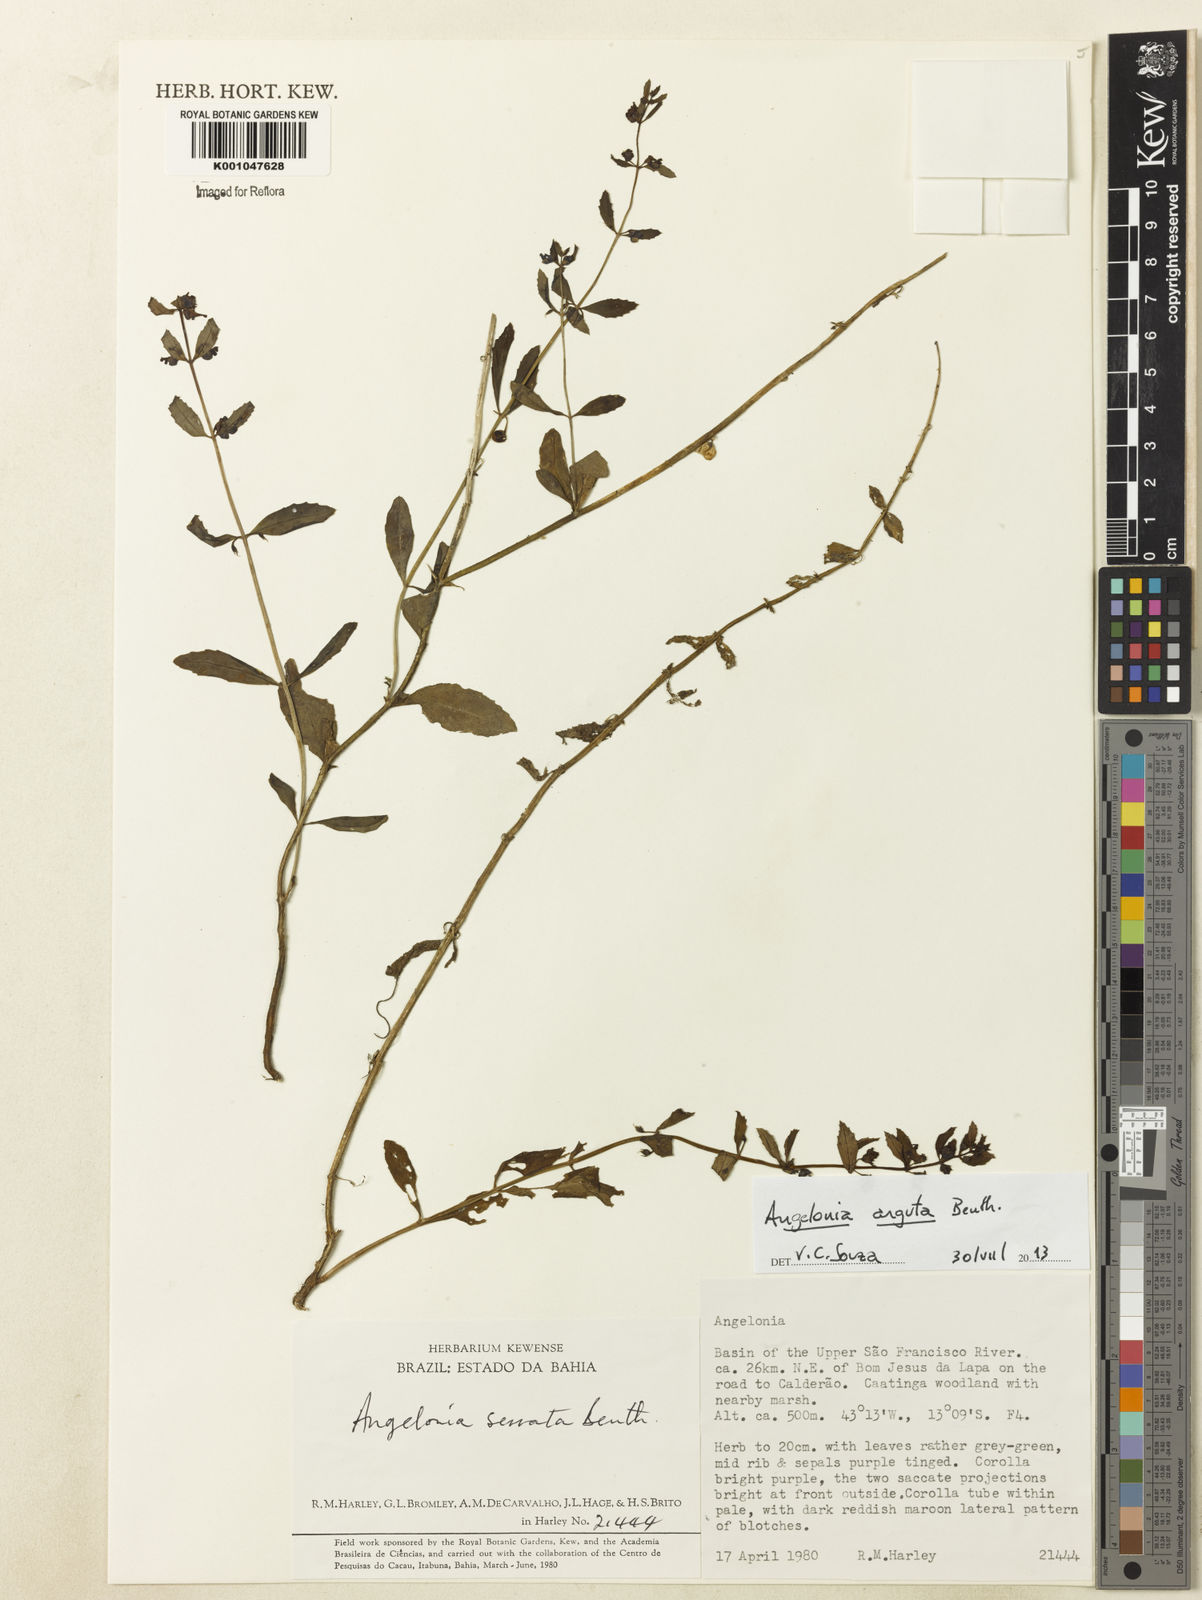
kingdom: Plantae
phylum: Tracheophyta
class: Magnoliopsida
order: Lamiales
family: Plantaginaceae
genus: Angelonia
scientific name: Angelonia arguta
